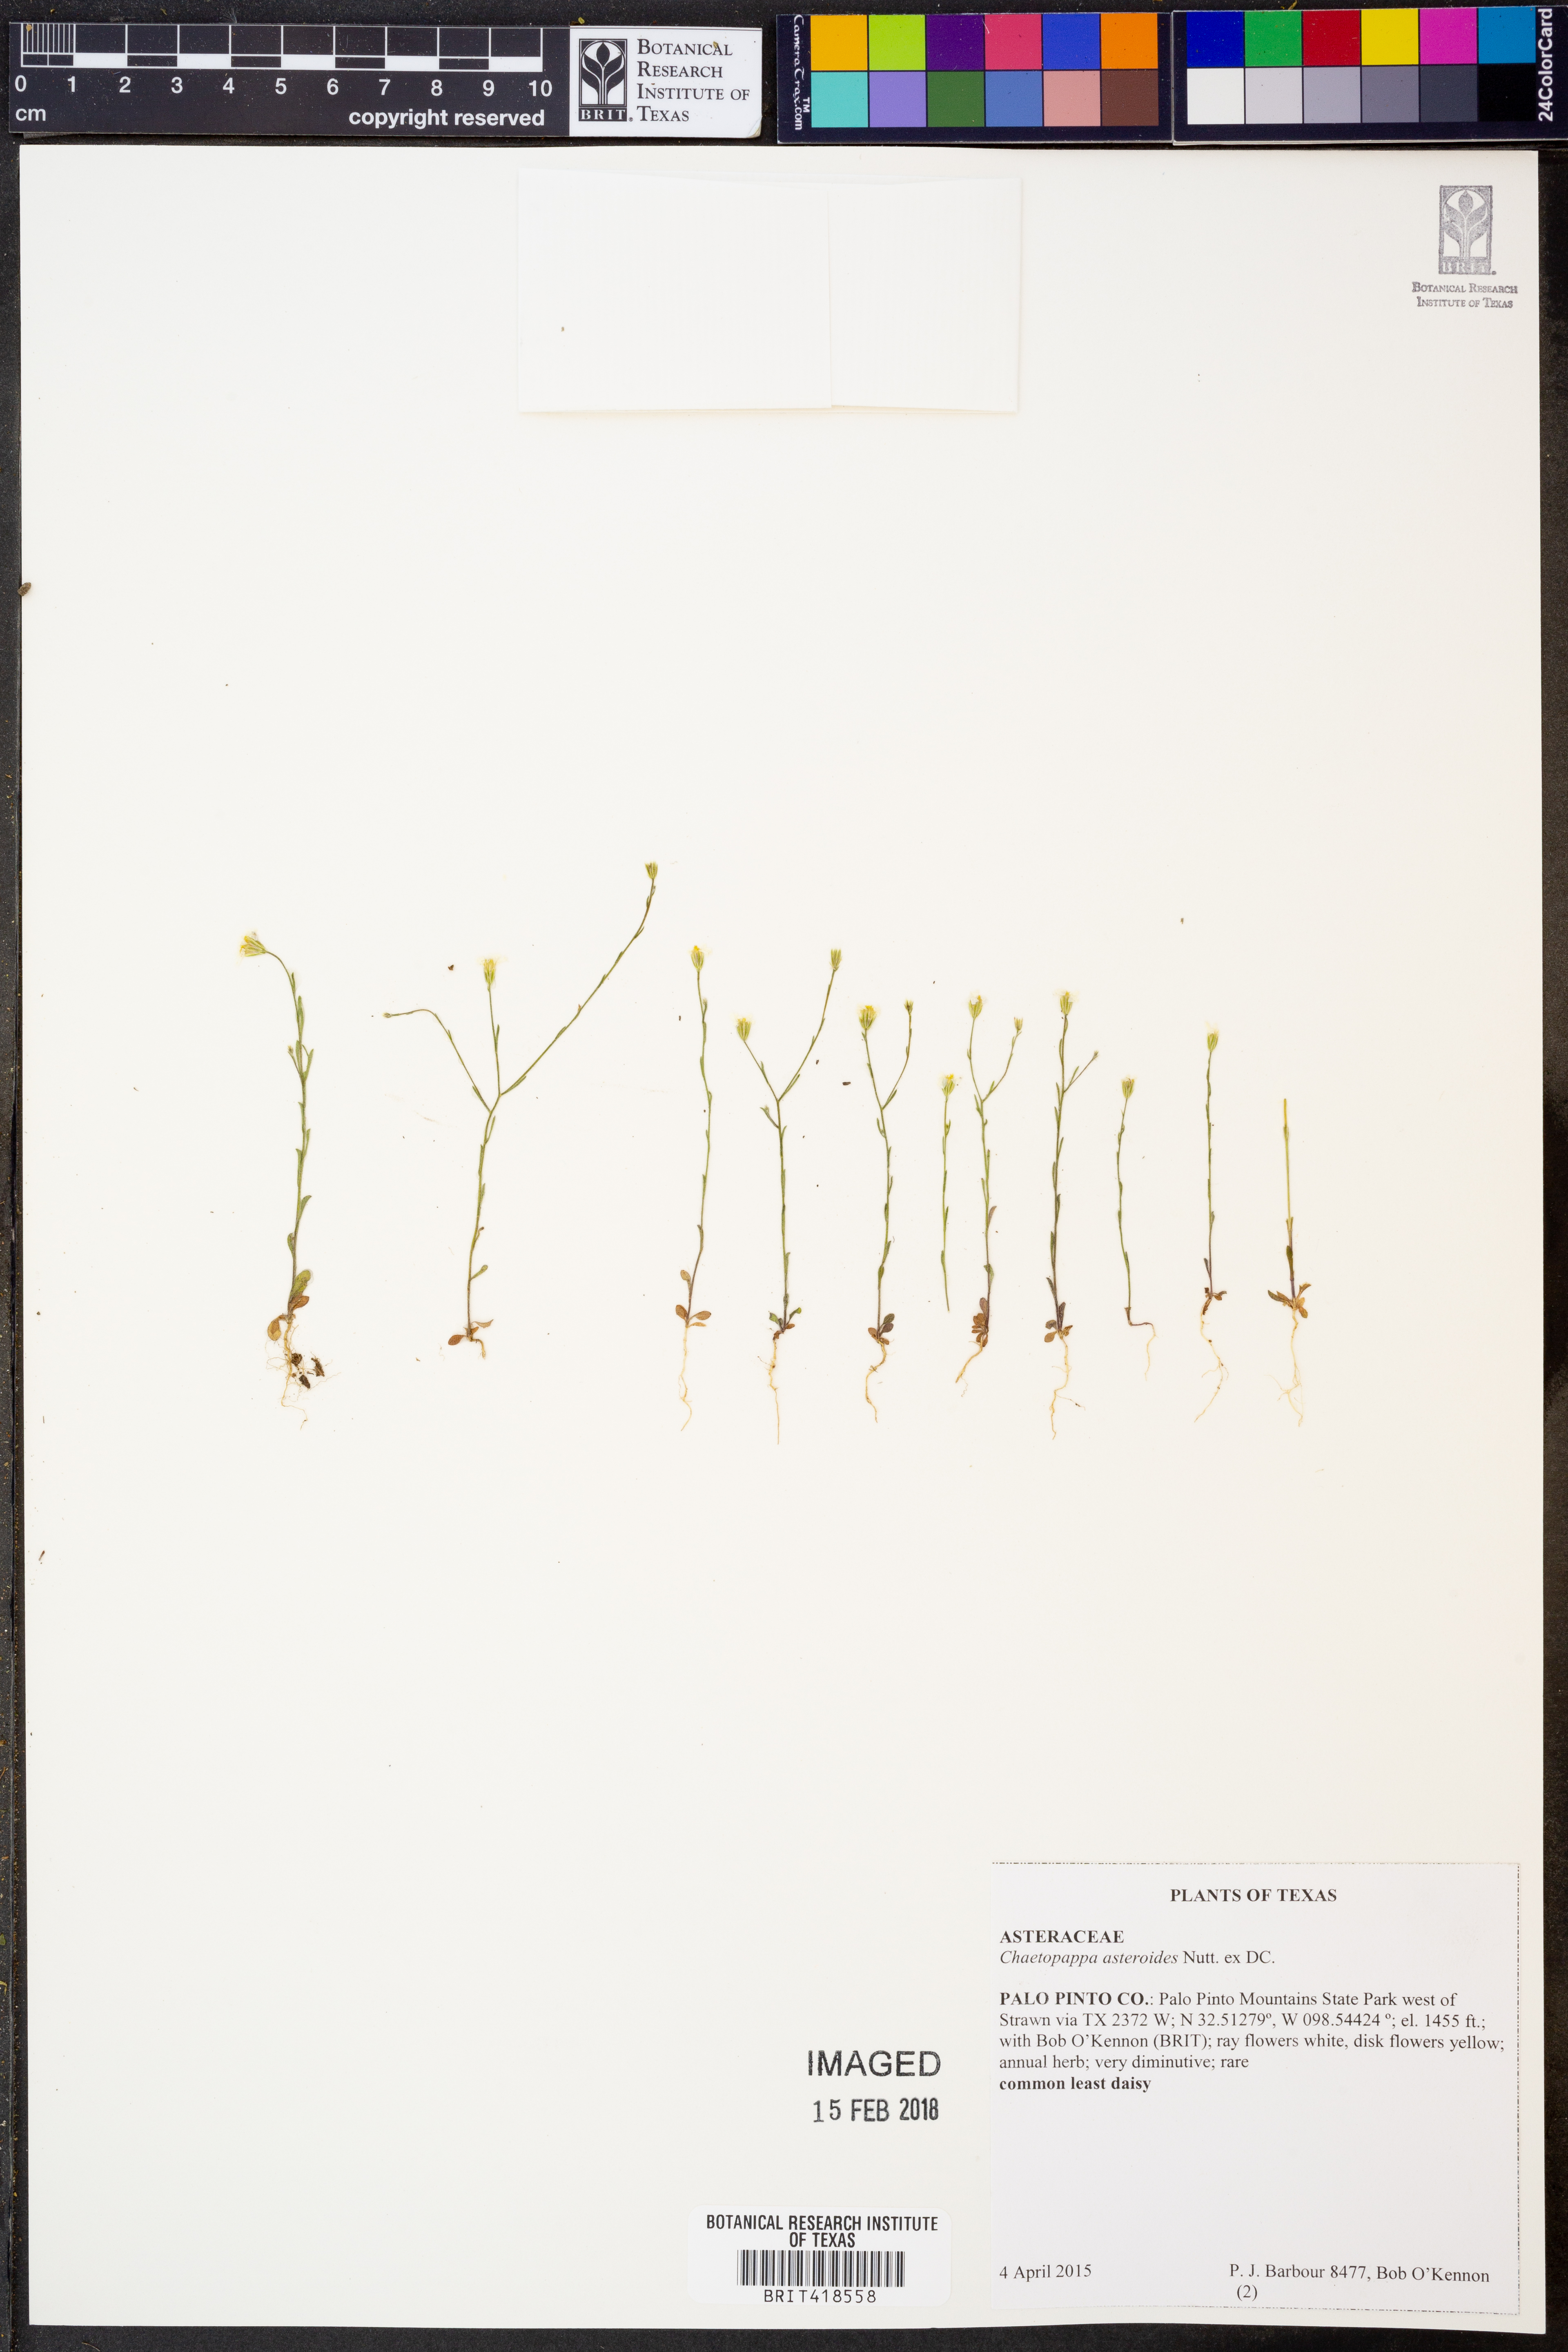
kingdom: Plantae
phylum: Tracheophyta
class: Magnoliopsida
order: Asterales
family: Asteraceae
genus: Chaetopappa
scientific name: Chaetopappa asteroides
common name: Tiny lazy daisy
